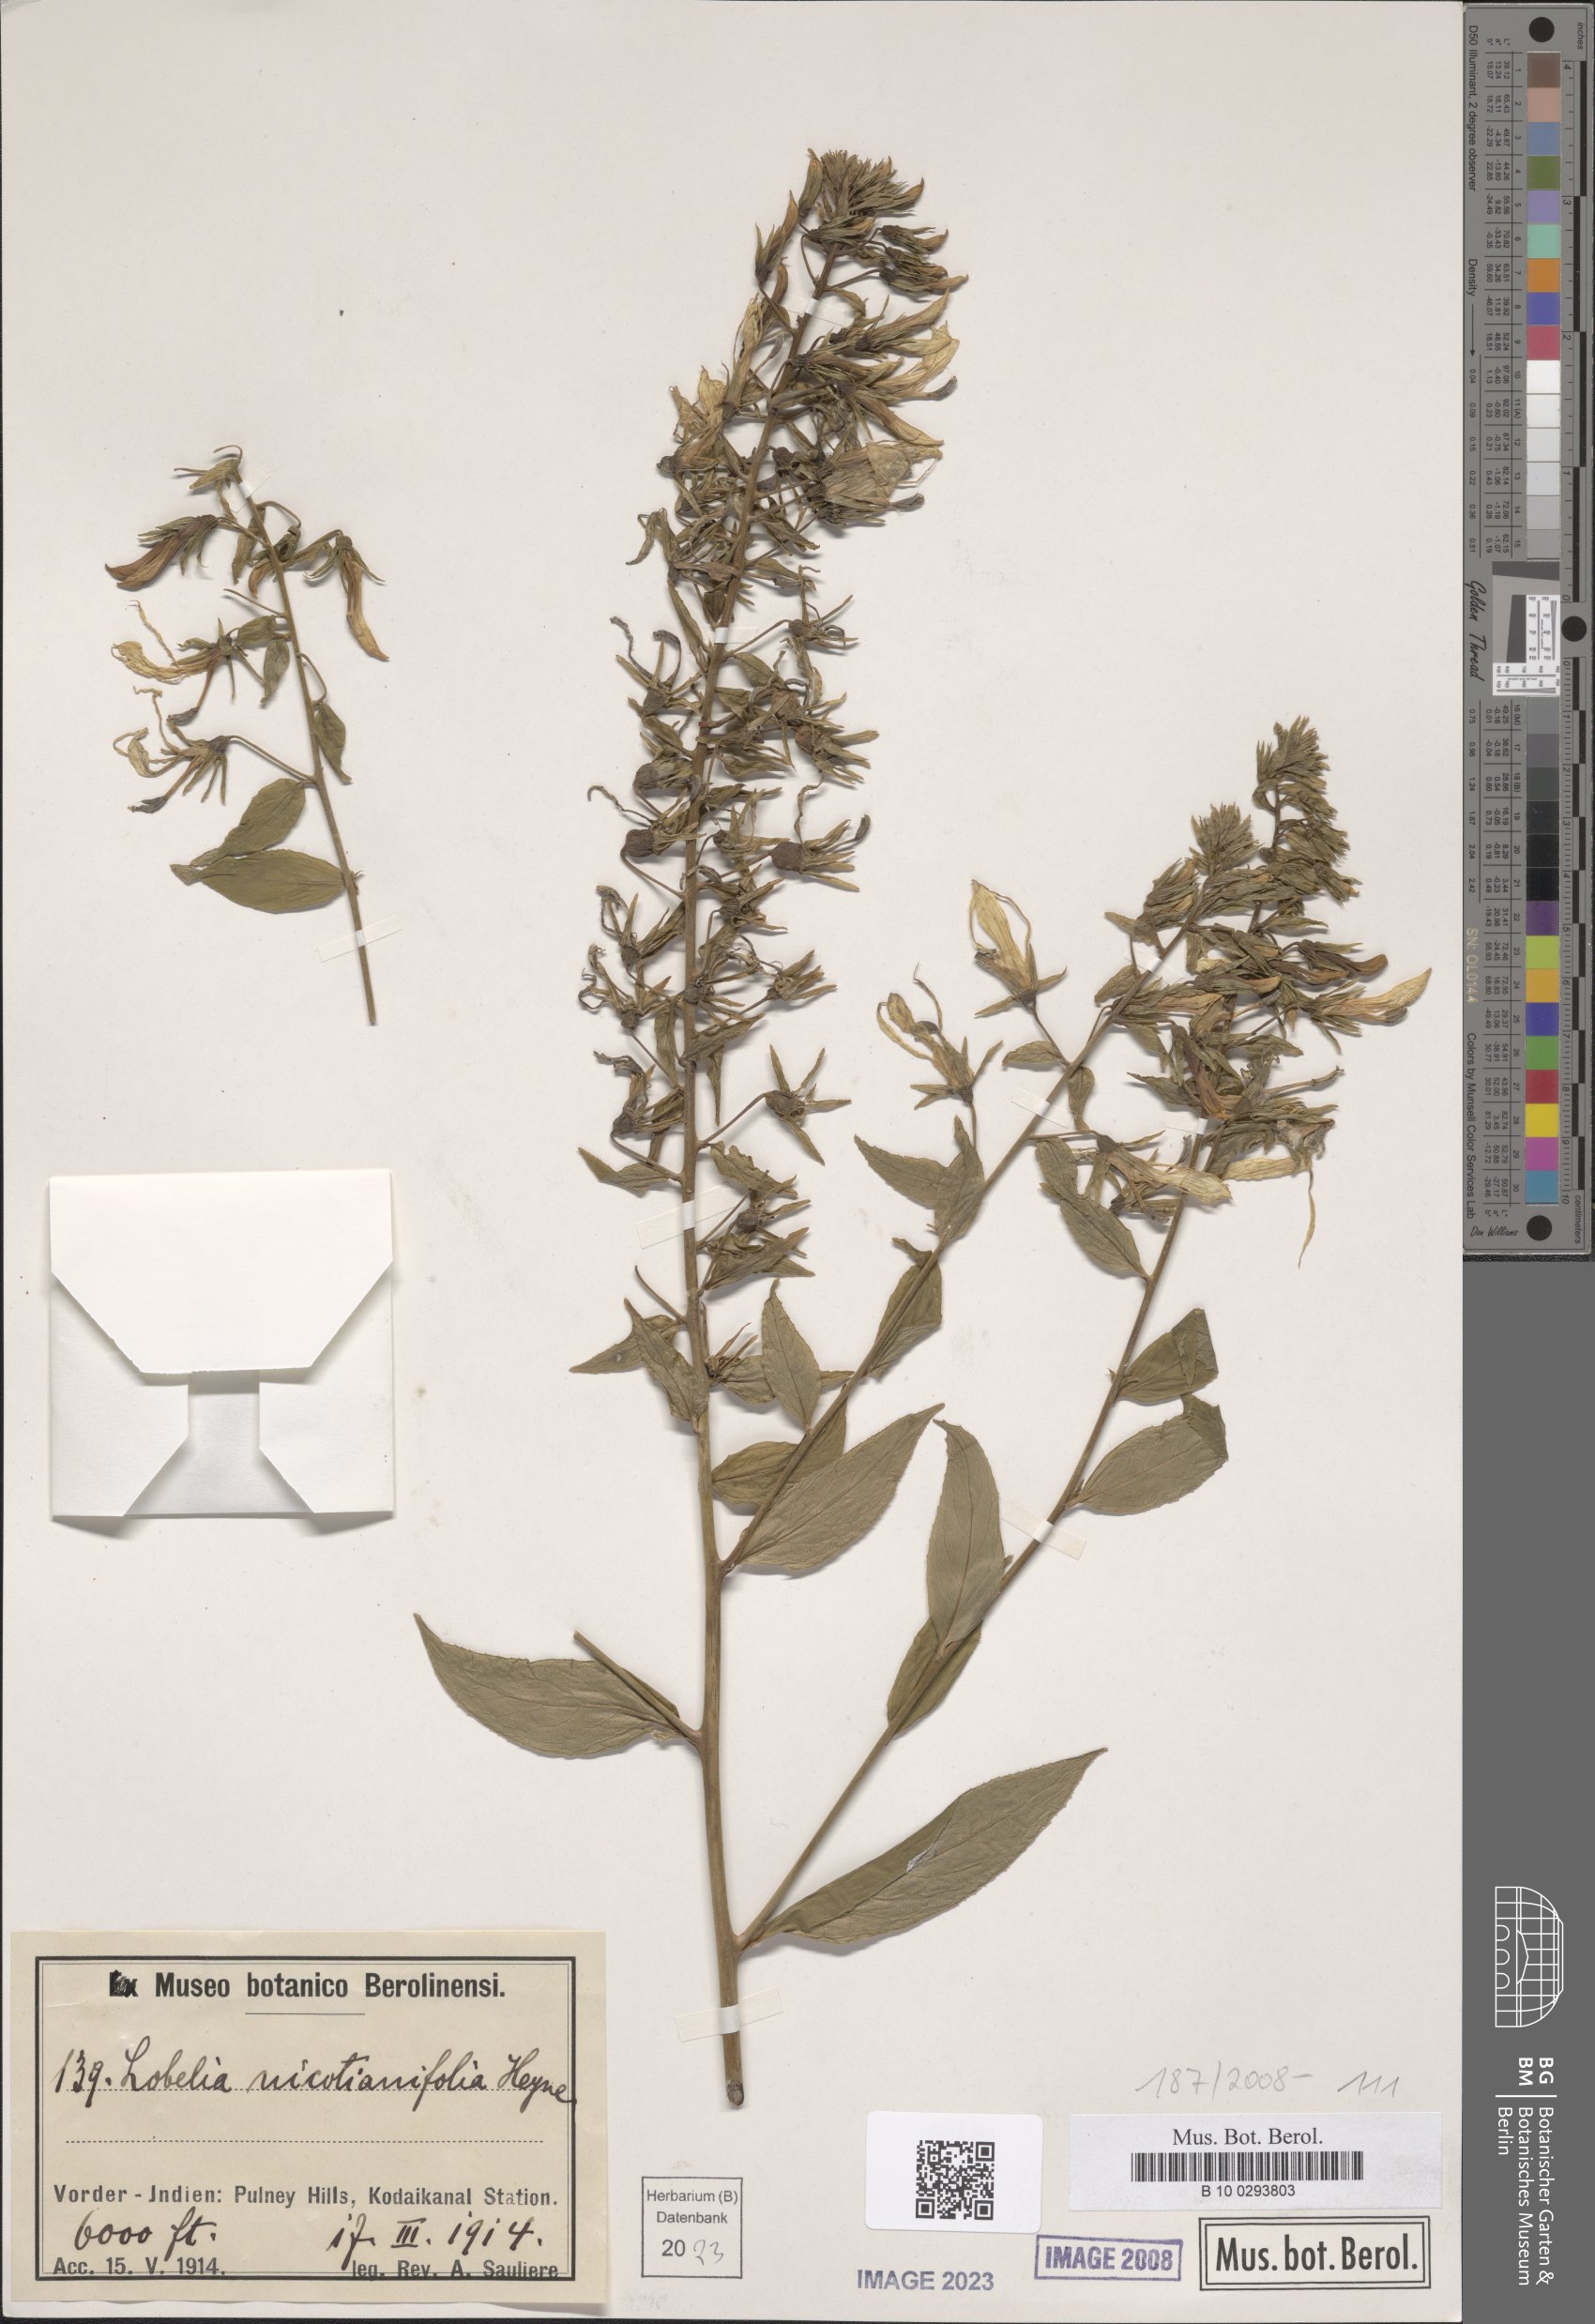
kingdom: Plantae
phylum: Tracheophyta
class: Magnoliopsida
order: Asterales
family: Campanulaceae
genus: Lobelia
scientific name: Lobelia nicotianifolia
